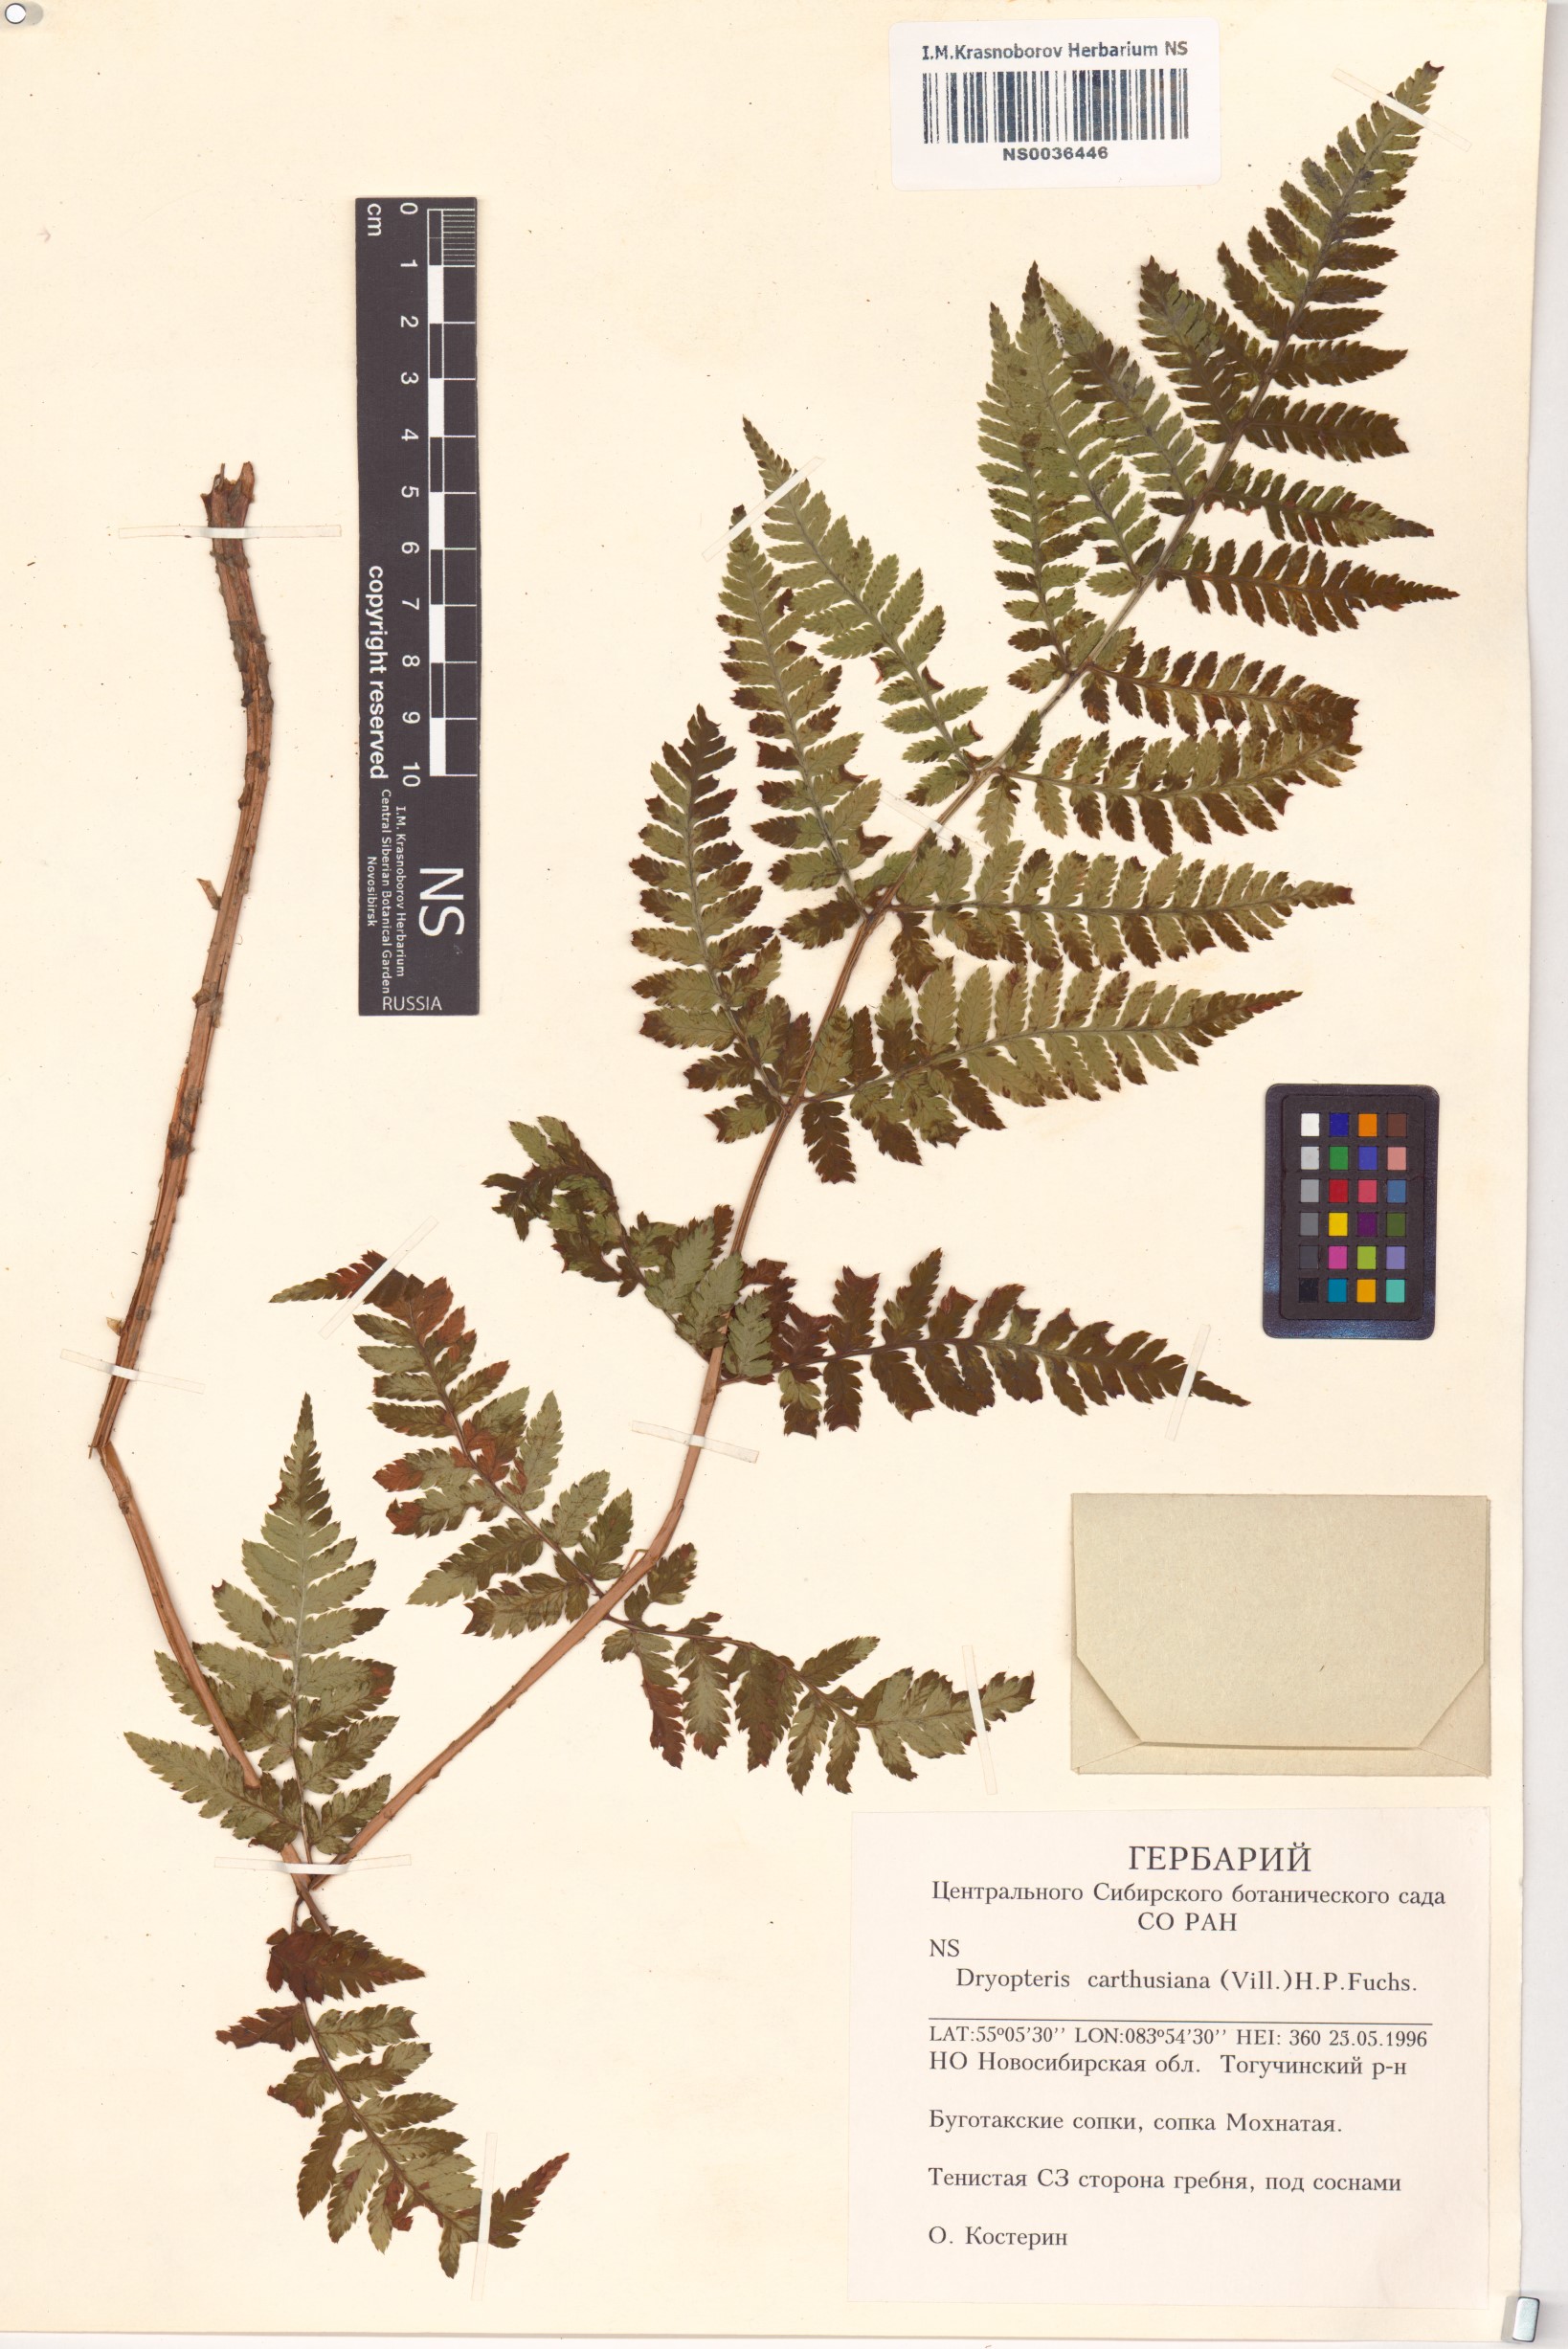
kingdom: Plantae
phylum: Tracheophyta
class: Polypodiopsida
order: Polypodiales
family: Dryopteridaceae
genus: Dryopteris
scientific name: Dryopteris carthusiana
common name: Narrow buckler-fern
